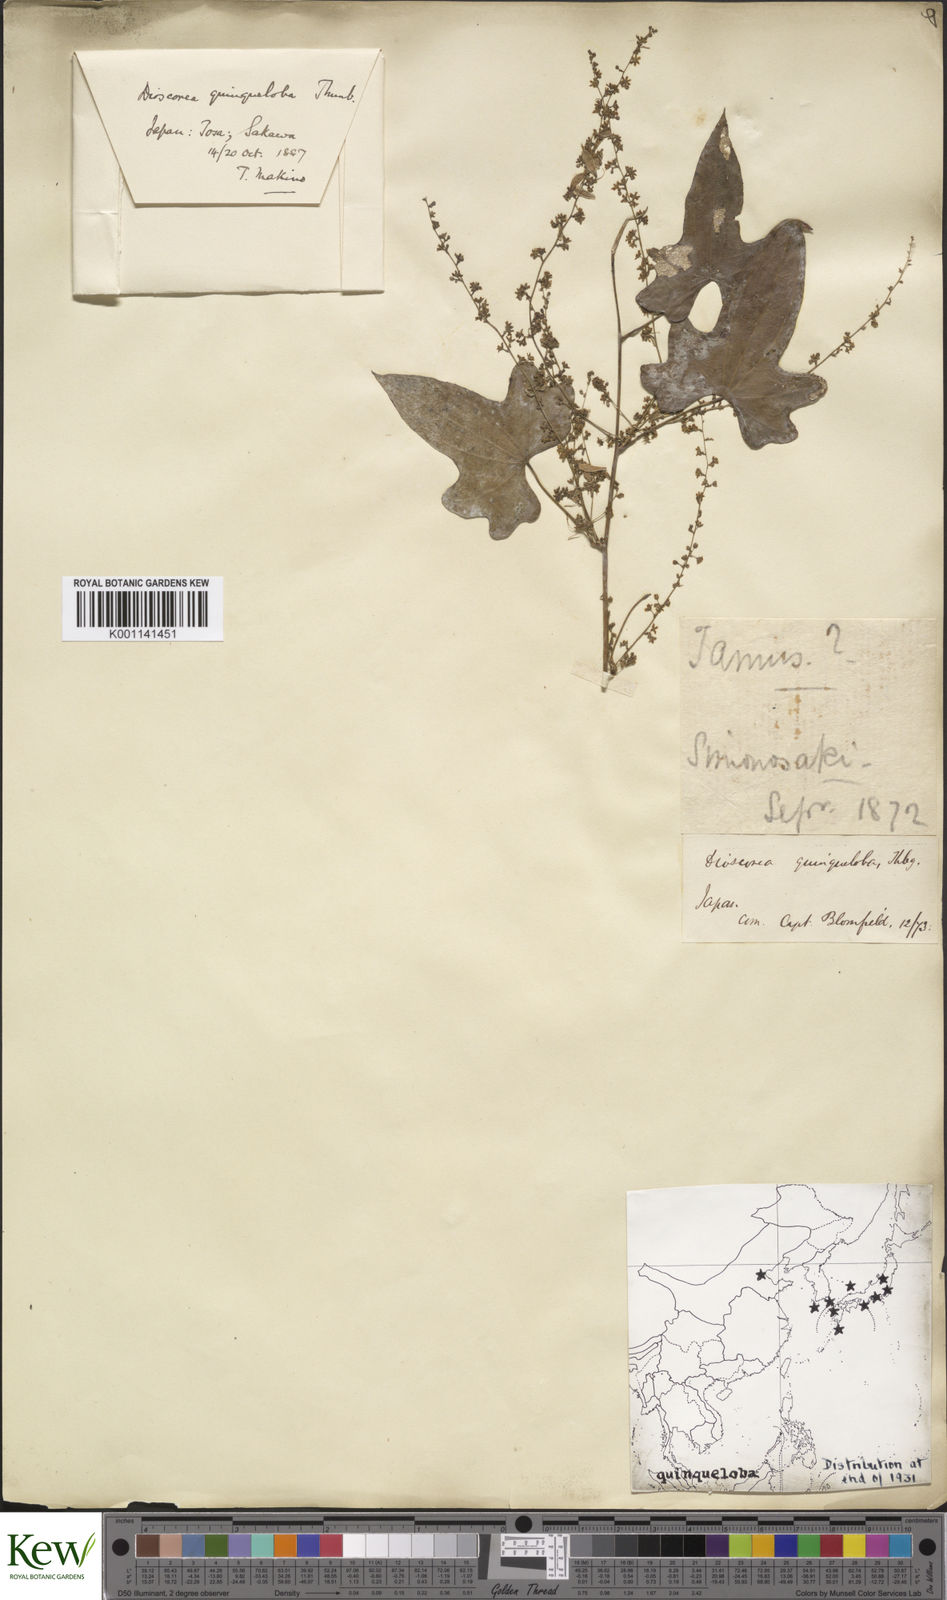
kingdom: Plantae
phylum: Tracheophyta
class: Liliopsida
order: Dioscoreales
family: Dioscoreaceae
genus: Dioscorea
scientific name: Dioscorea quinquelobata
